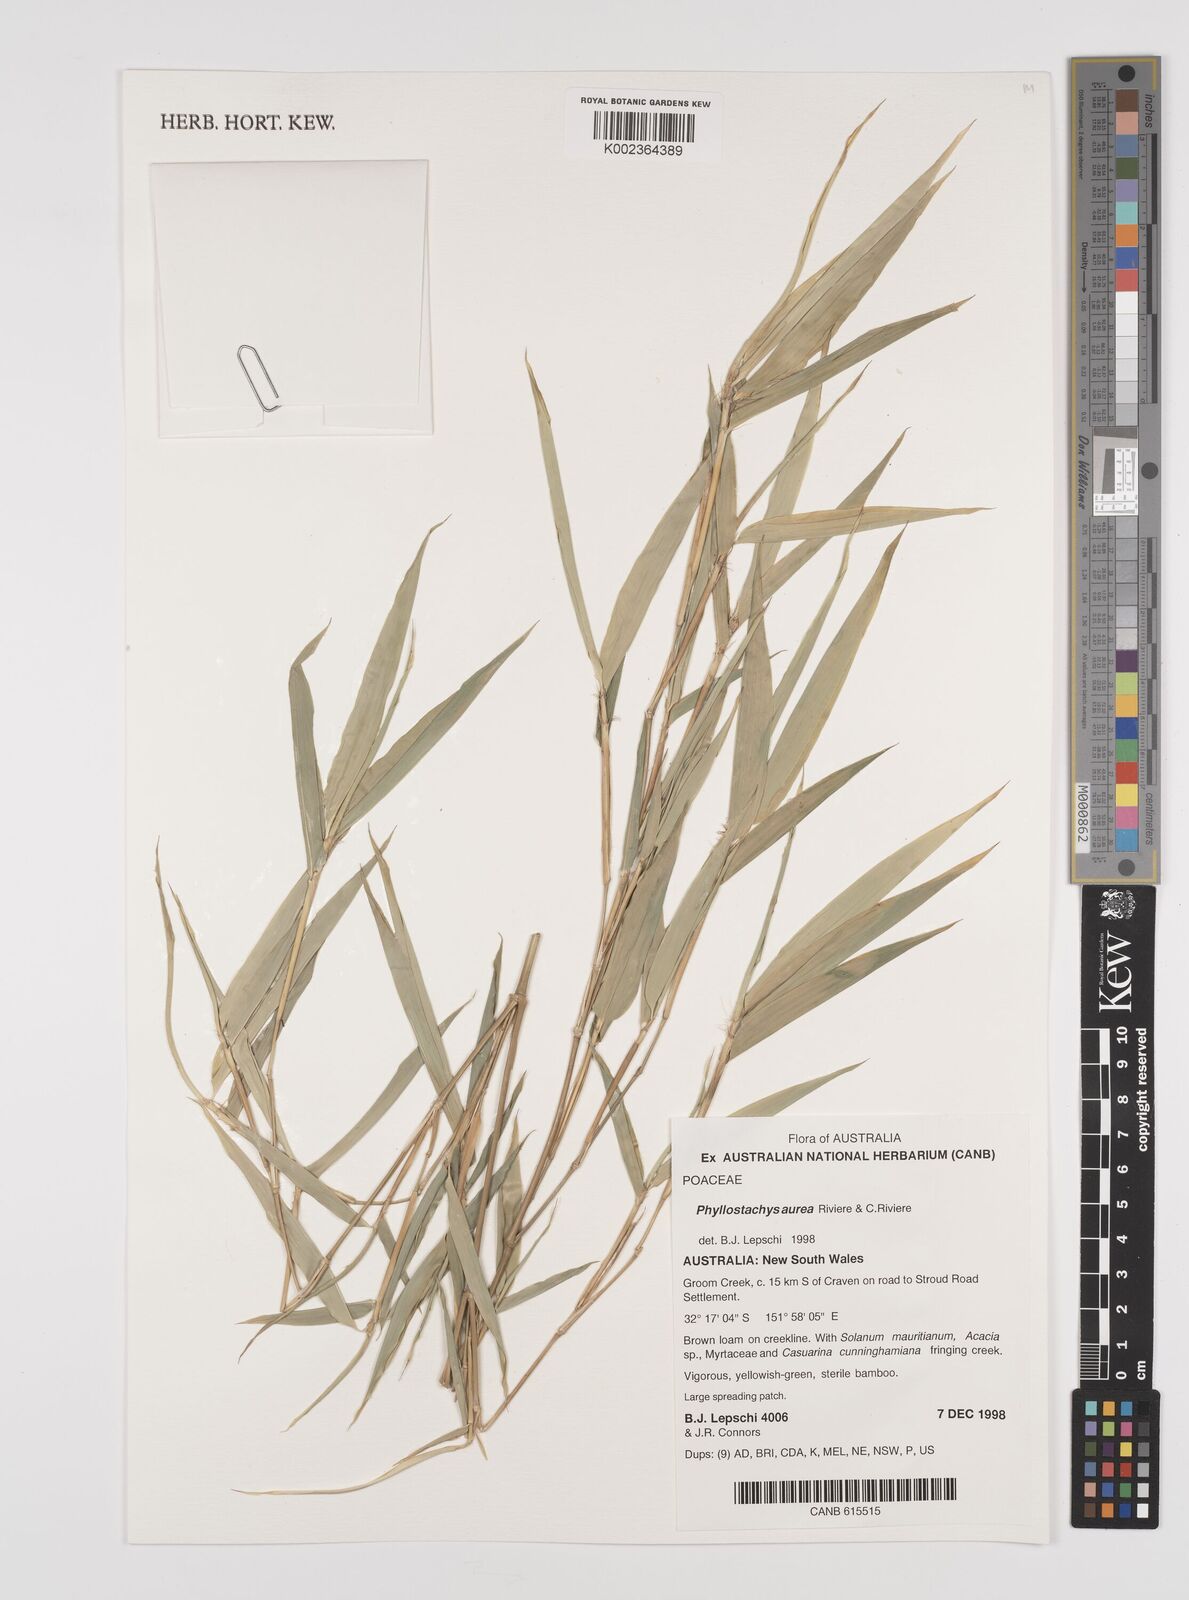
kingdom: Plantae
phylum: Tracheophyta
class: Liliopsida
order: Poales
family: Poaceae
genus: Phyllostachys
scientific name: Phyllostachys aurea
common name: Golden bamboo
